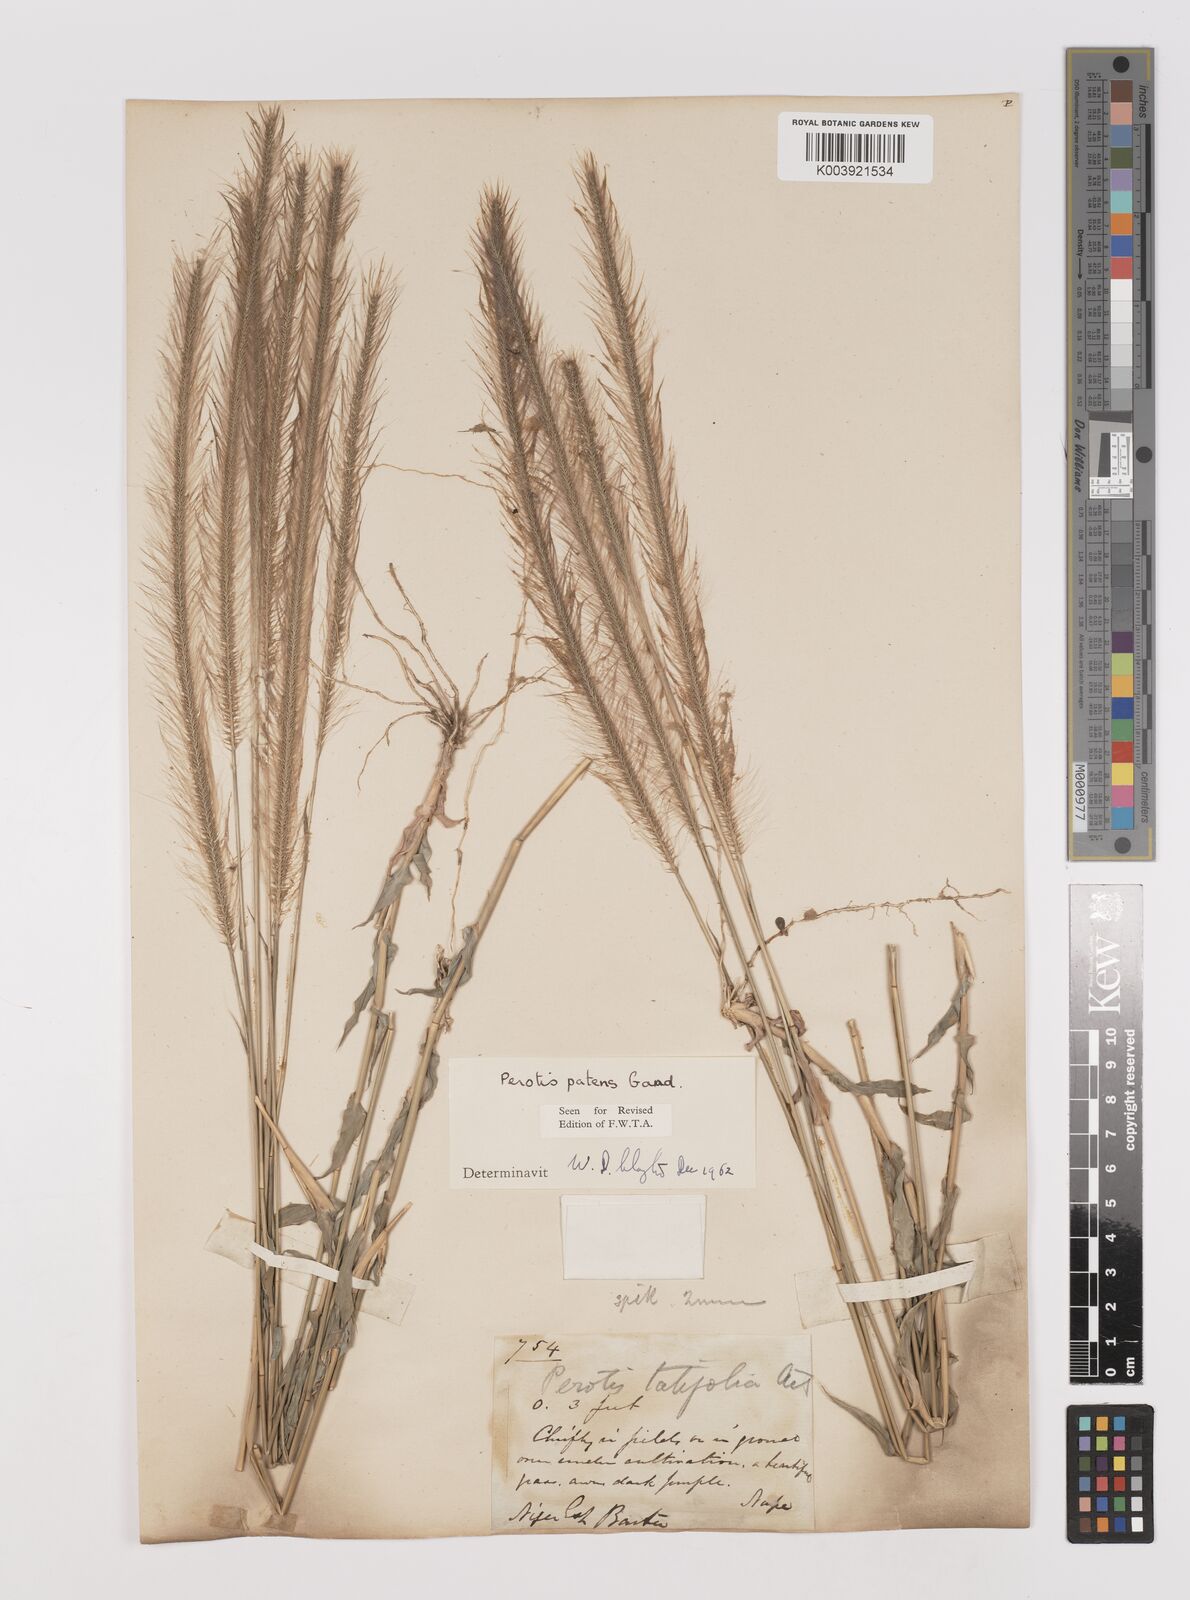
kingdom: Plantae
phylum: Tracheophyta
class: Liliopsida
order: Poales
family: Poaceae
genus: Perotis
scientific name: Perotis patens
